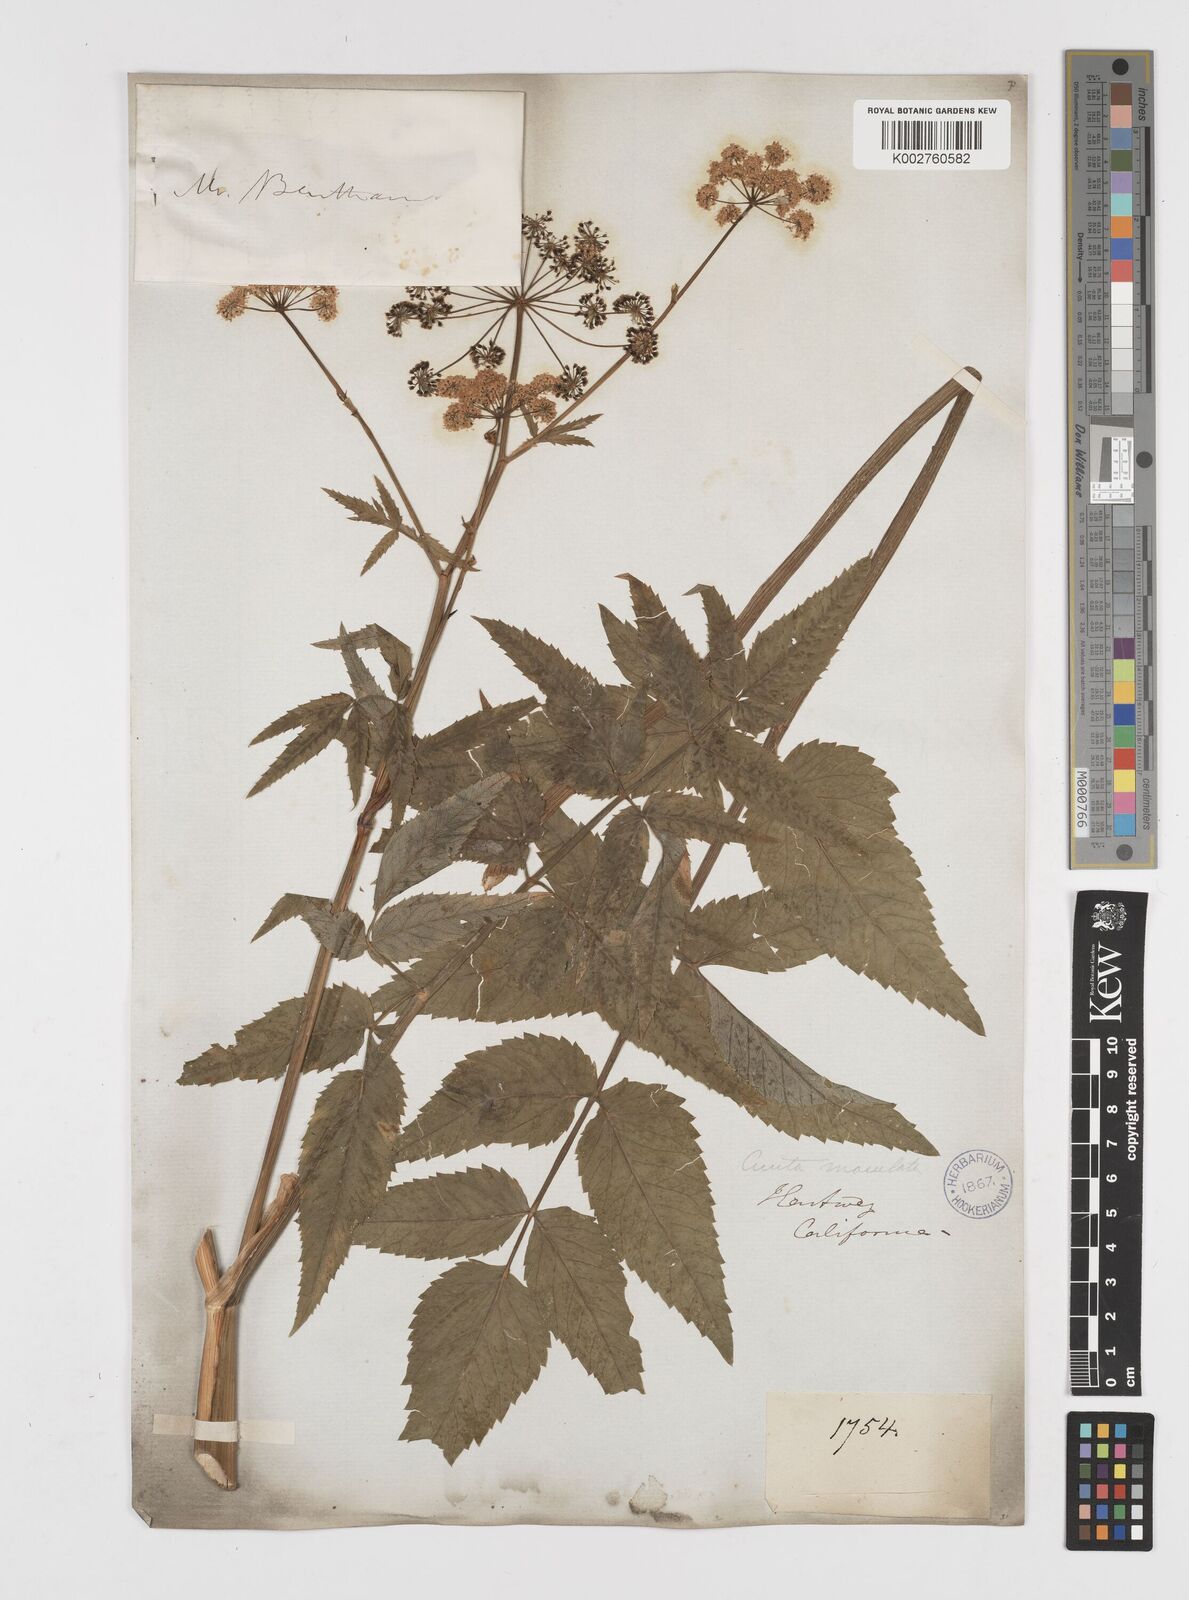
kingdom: Plantae
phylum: Tracheophyta
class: Magnoliopsida
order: Apiales
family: Apiaceae
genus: Cicuta
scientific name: Cicuta douglasii
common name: Western water-hemlock
